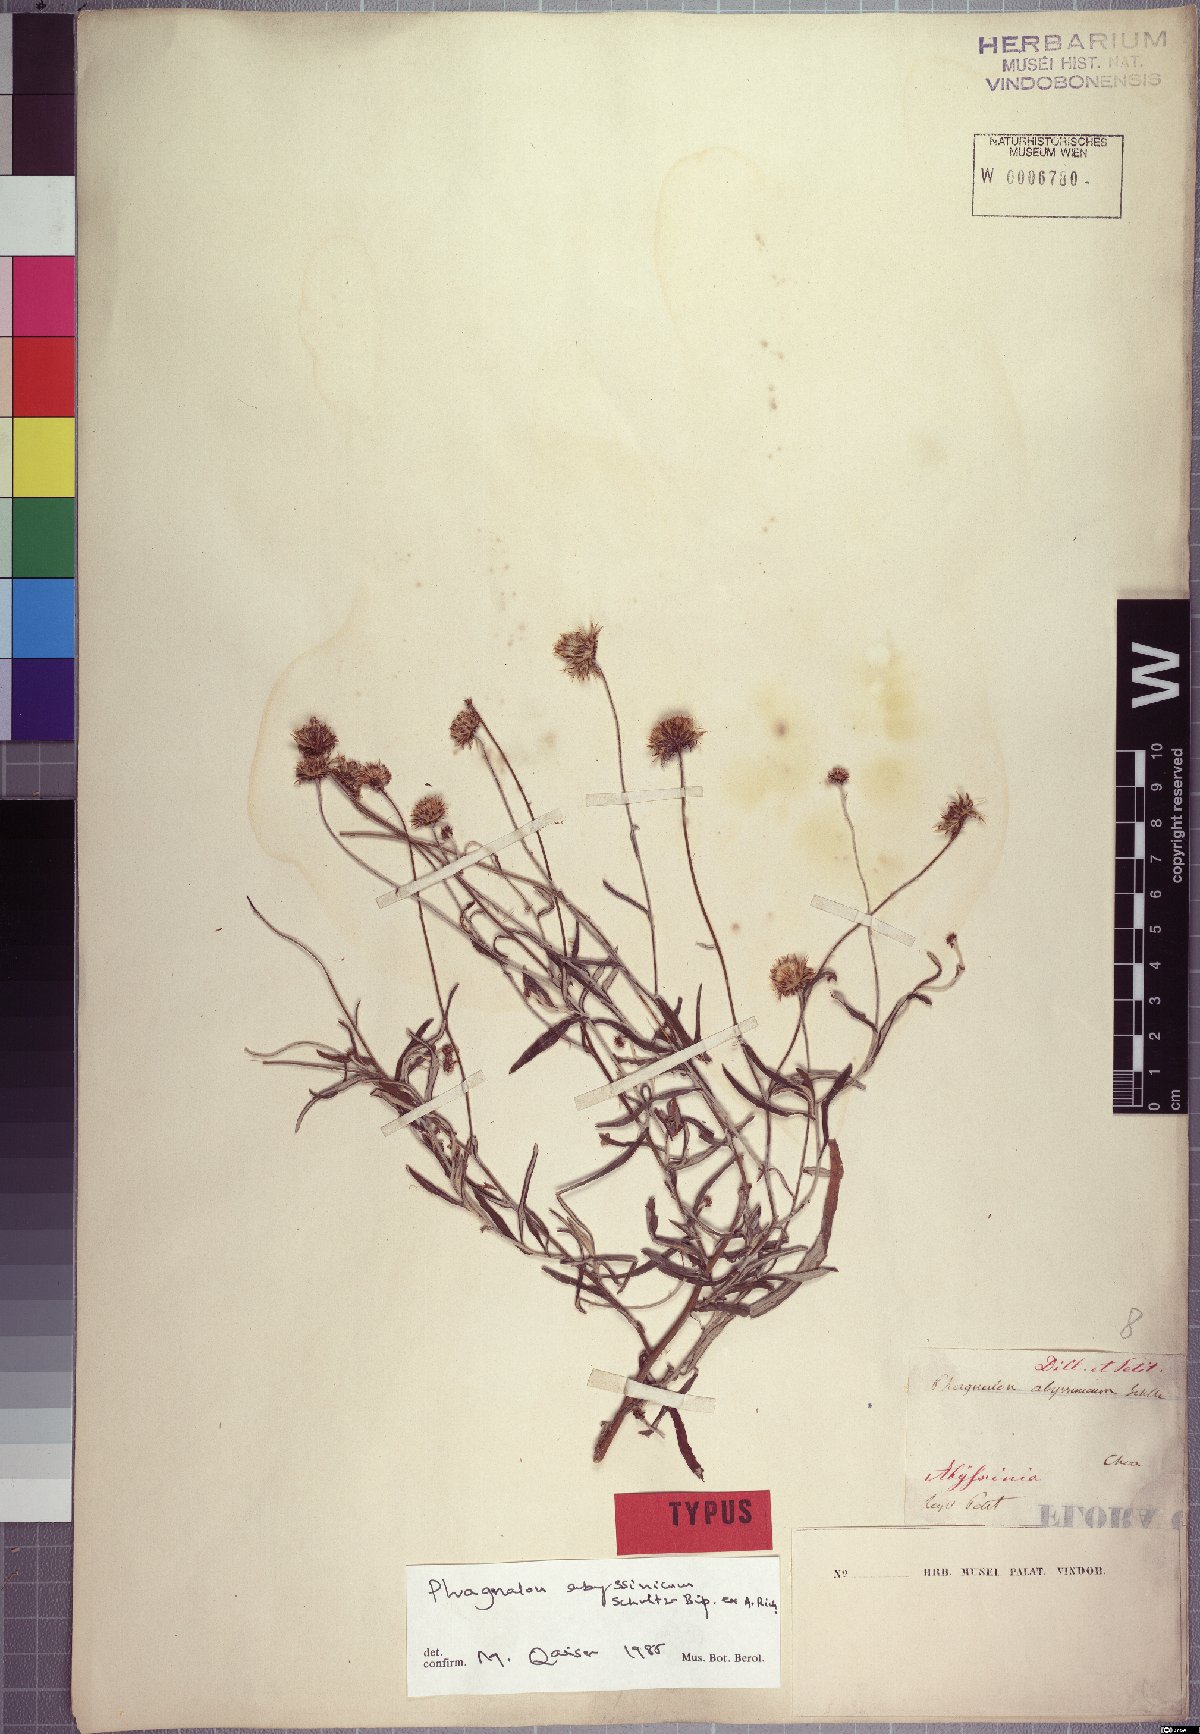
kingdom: Plantae
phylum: Tracheophyta
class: Magnoliopsida
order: Asterales
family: Asteraceae
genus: Phagnalon
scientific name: Phagnalon abyssinicum
